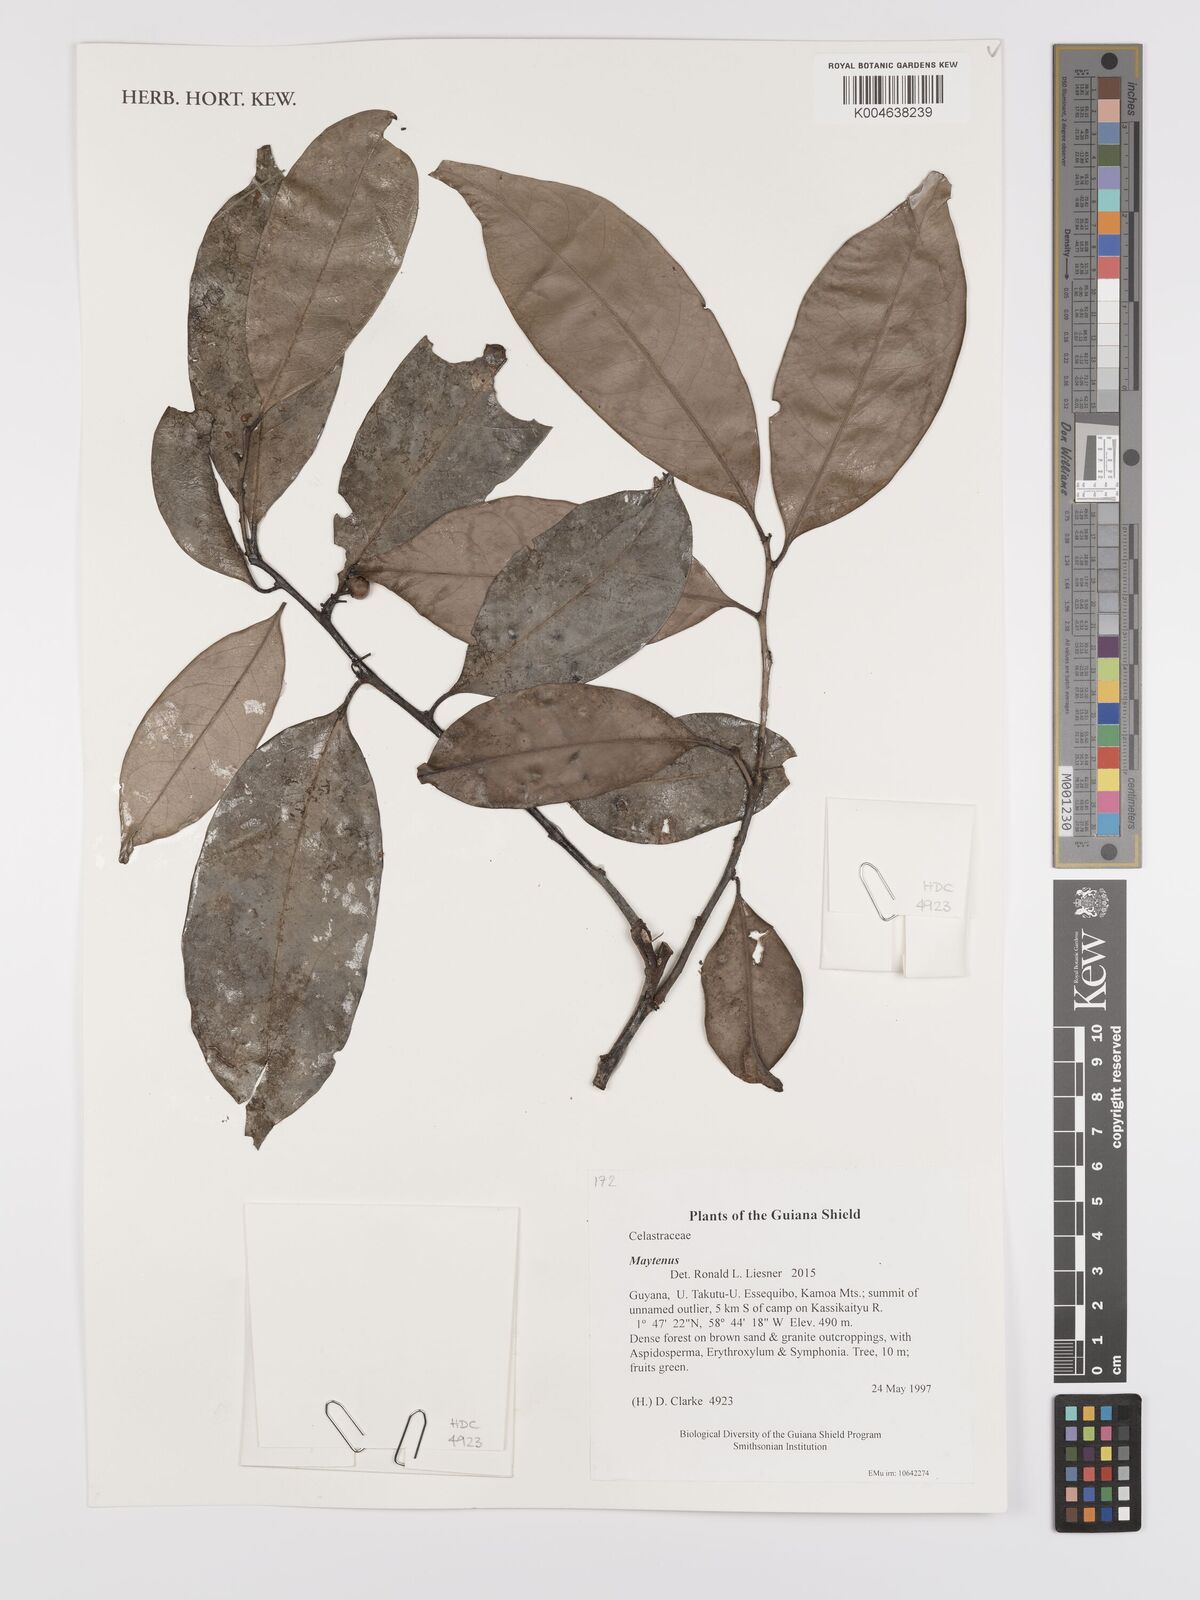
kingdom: Plantae
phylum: Tracheophyta
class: Magnoliopsida
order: Celastrales
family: Celastraceae
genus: Maytenus
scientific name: Maytenus
